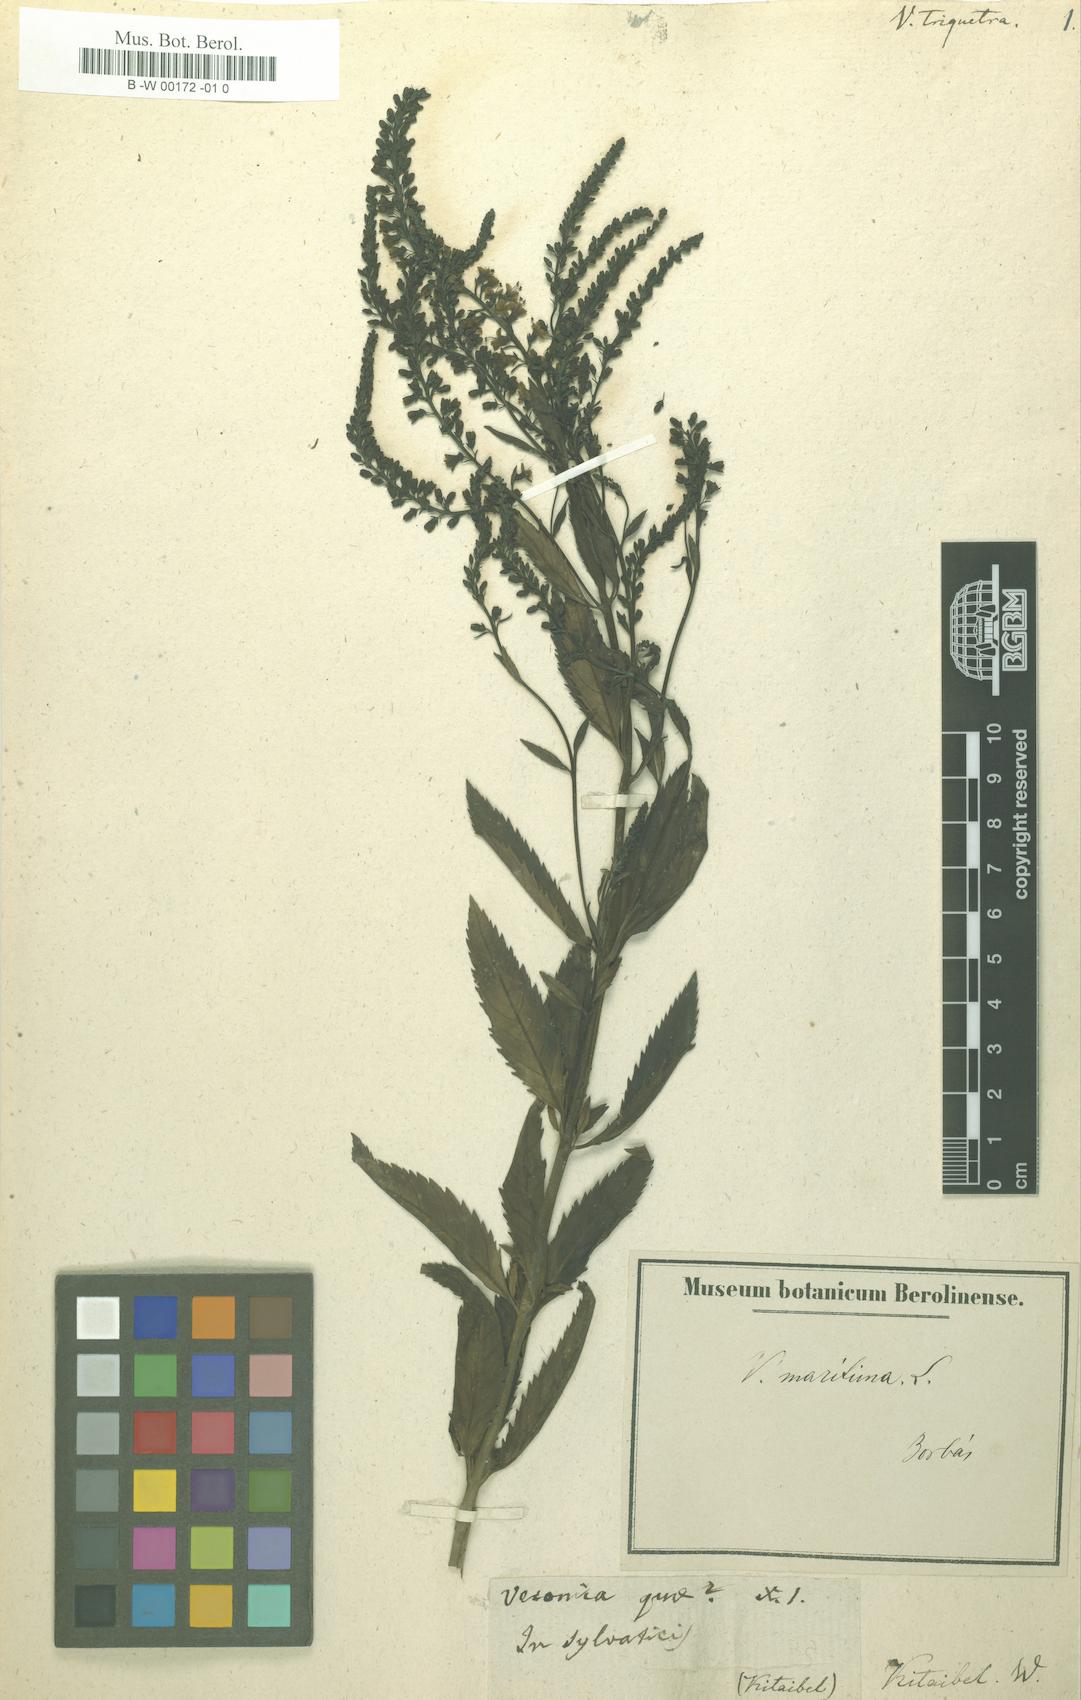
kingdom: Plantae
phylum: Tracheophyta
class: Magnoliopsida
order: Lamiales
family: Plantaginaceae
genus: Veronica
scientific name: Veronica spuria
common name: Bastard speedwell
